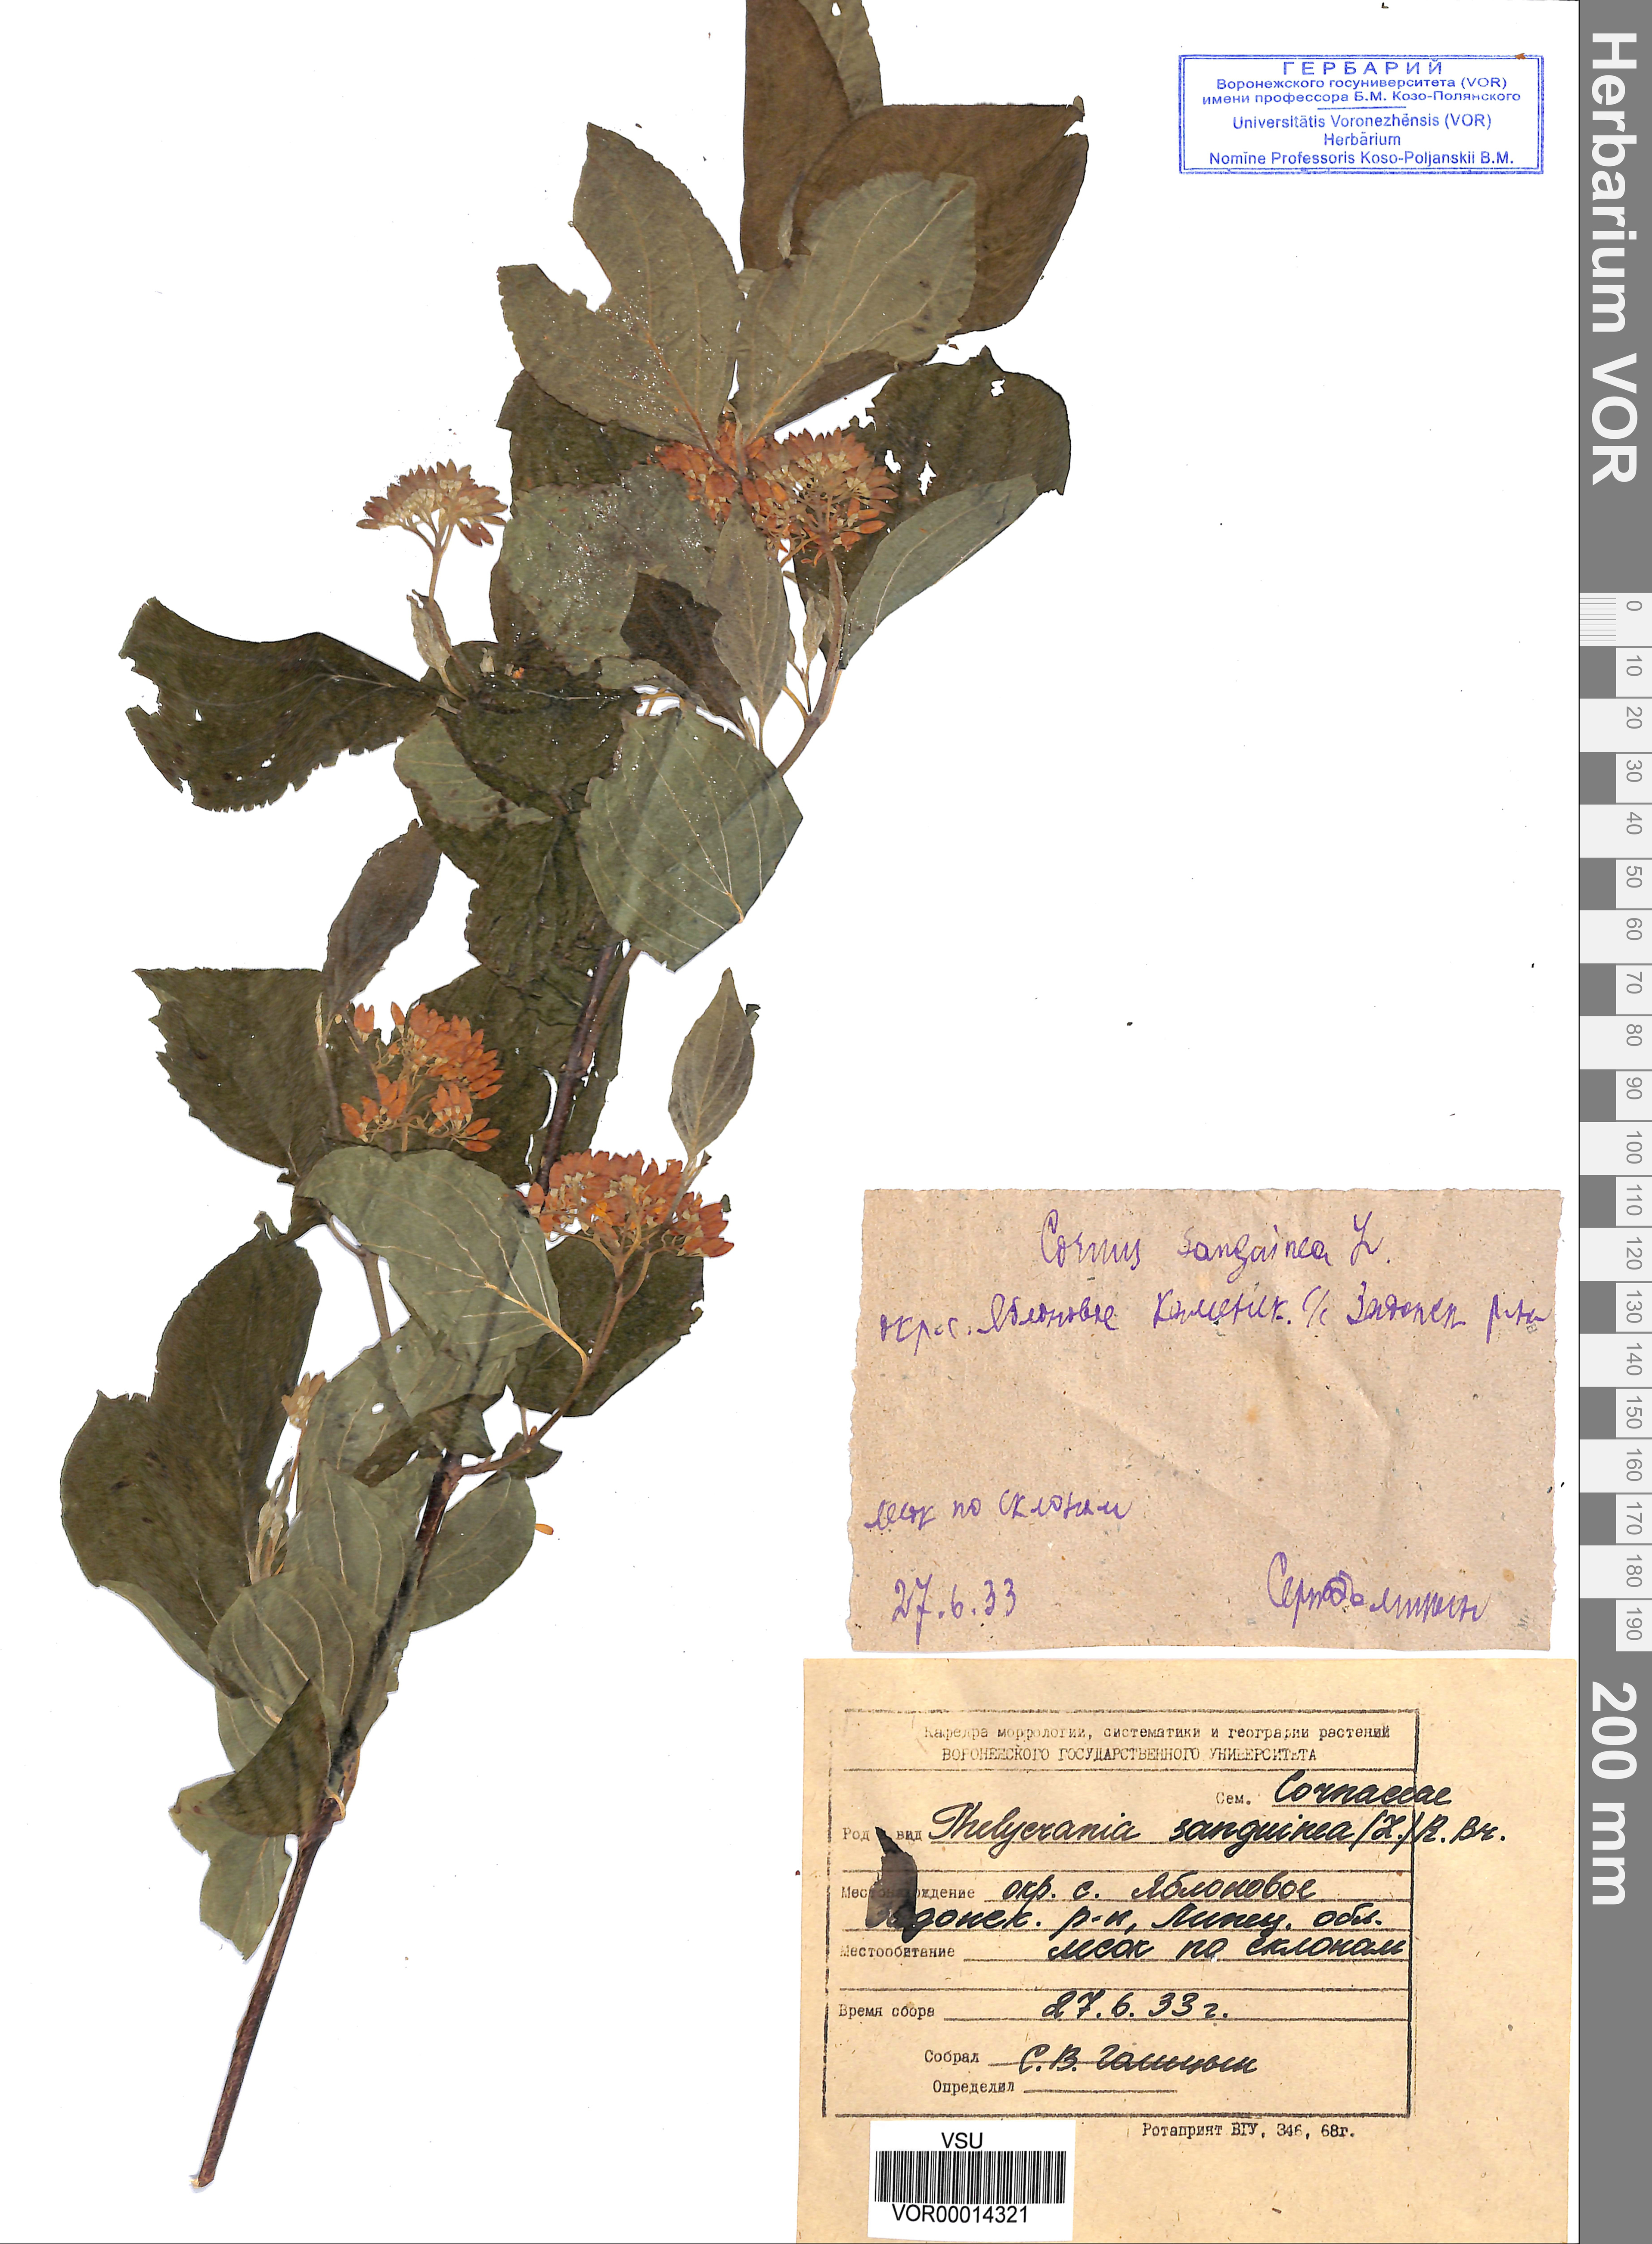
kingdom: Plantae
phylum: Tracheophyta
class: Magnoliopsida
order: Cornales
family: Cornaceae
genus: Cornus
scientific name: Cornus sanguinea
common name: Dogwood
